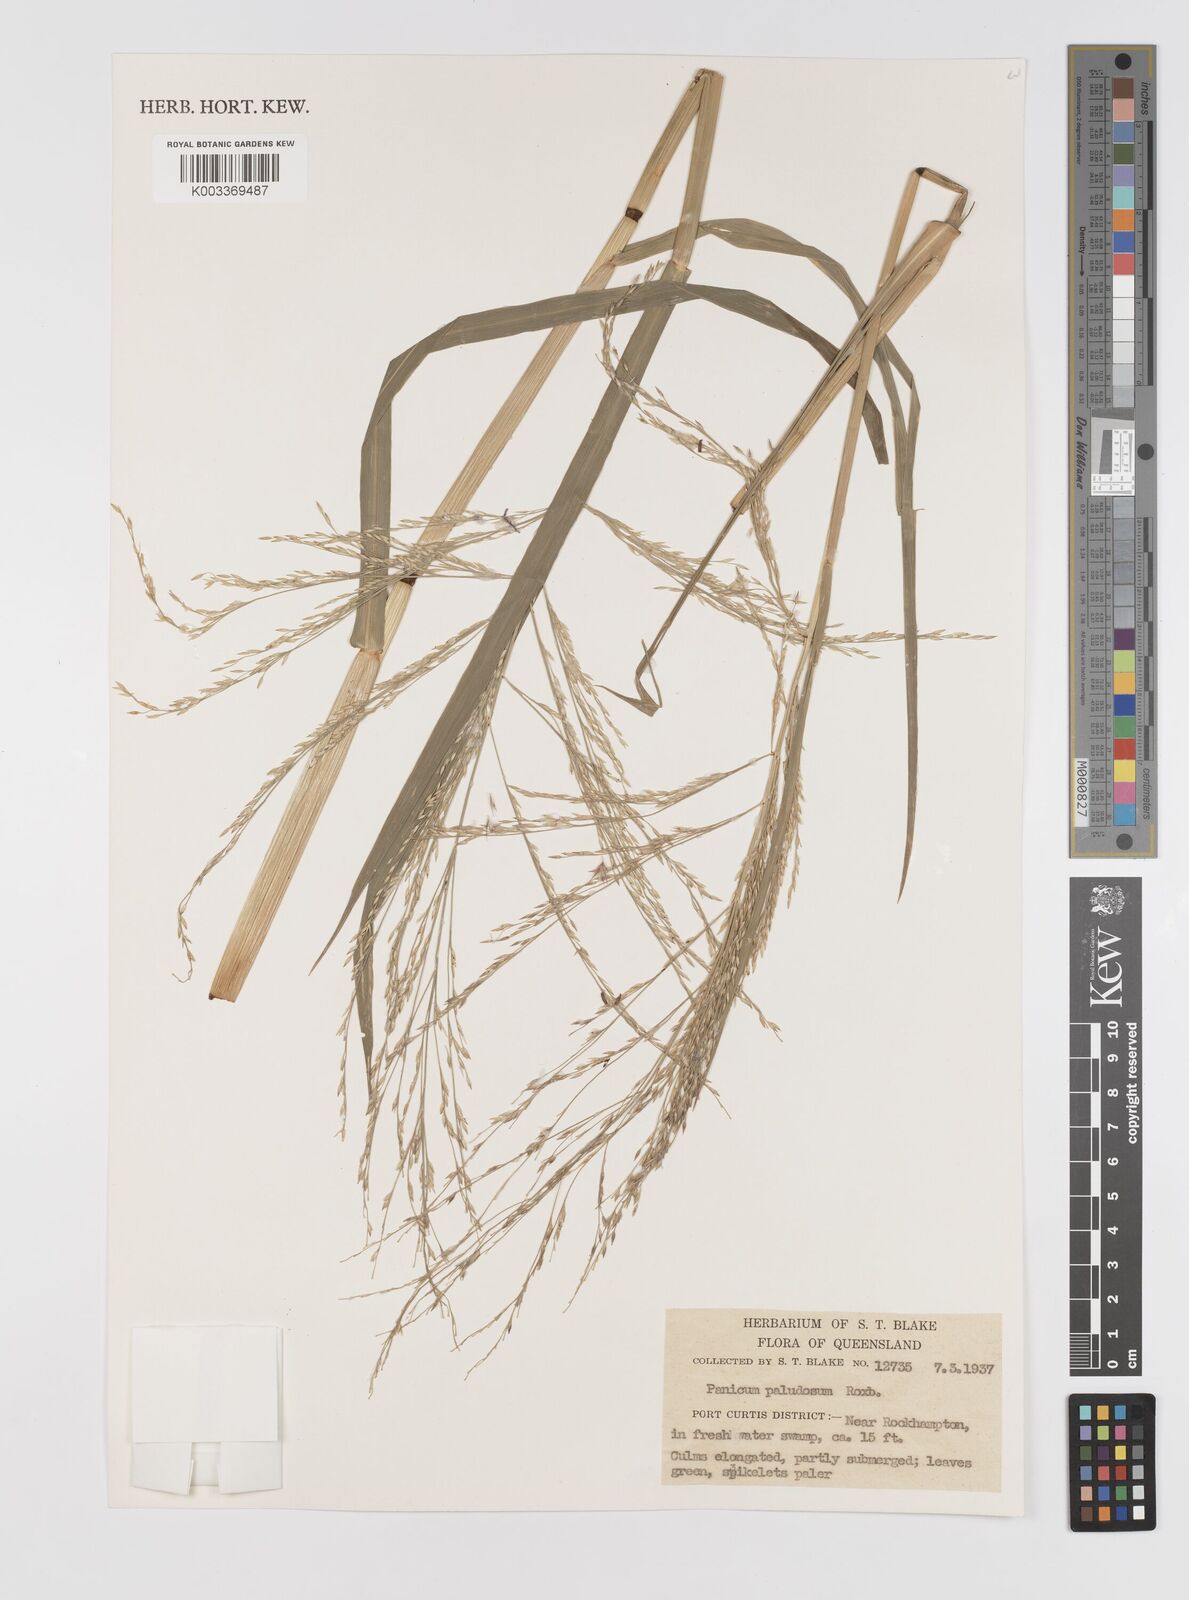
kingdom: Plantae
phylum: Tracheophyta
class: Liliopsida
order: Poales
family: Poaceae
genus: Louisiella
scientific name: Louisiella paludosa
